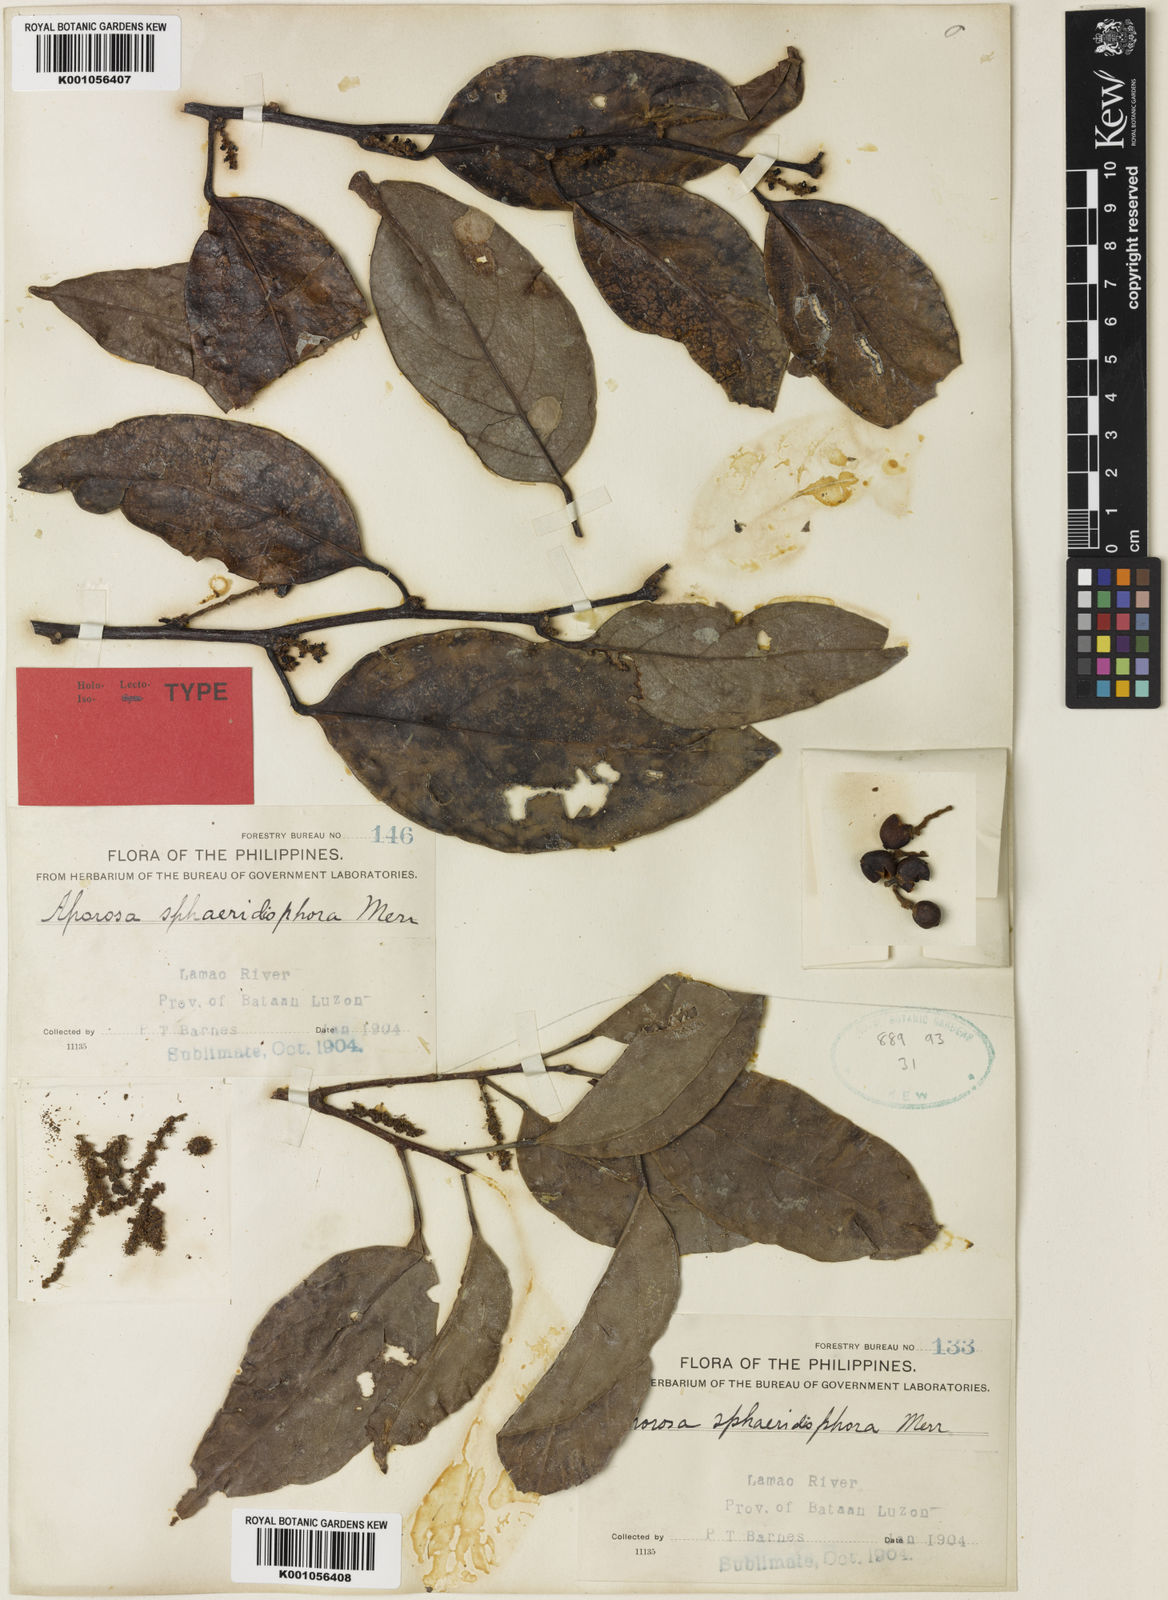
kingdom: Plantae
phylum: Tracheophyta
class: Magnoliopsida
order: Malpighiales
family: Phyllanthaceae
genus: Aporosa
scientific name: Aporosa sphaeridiophora
